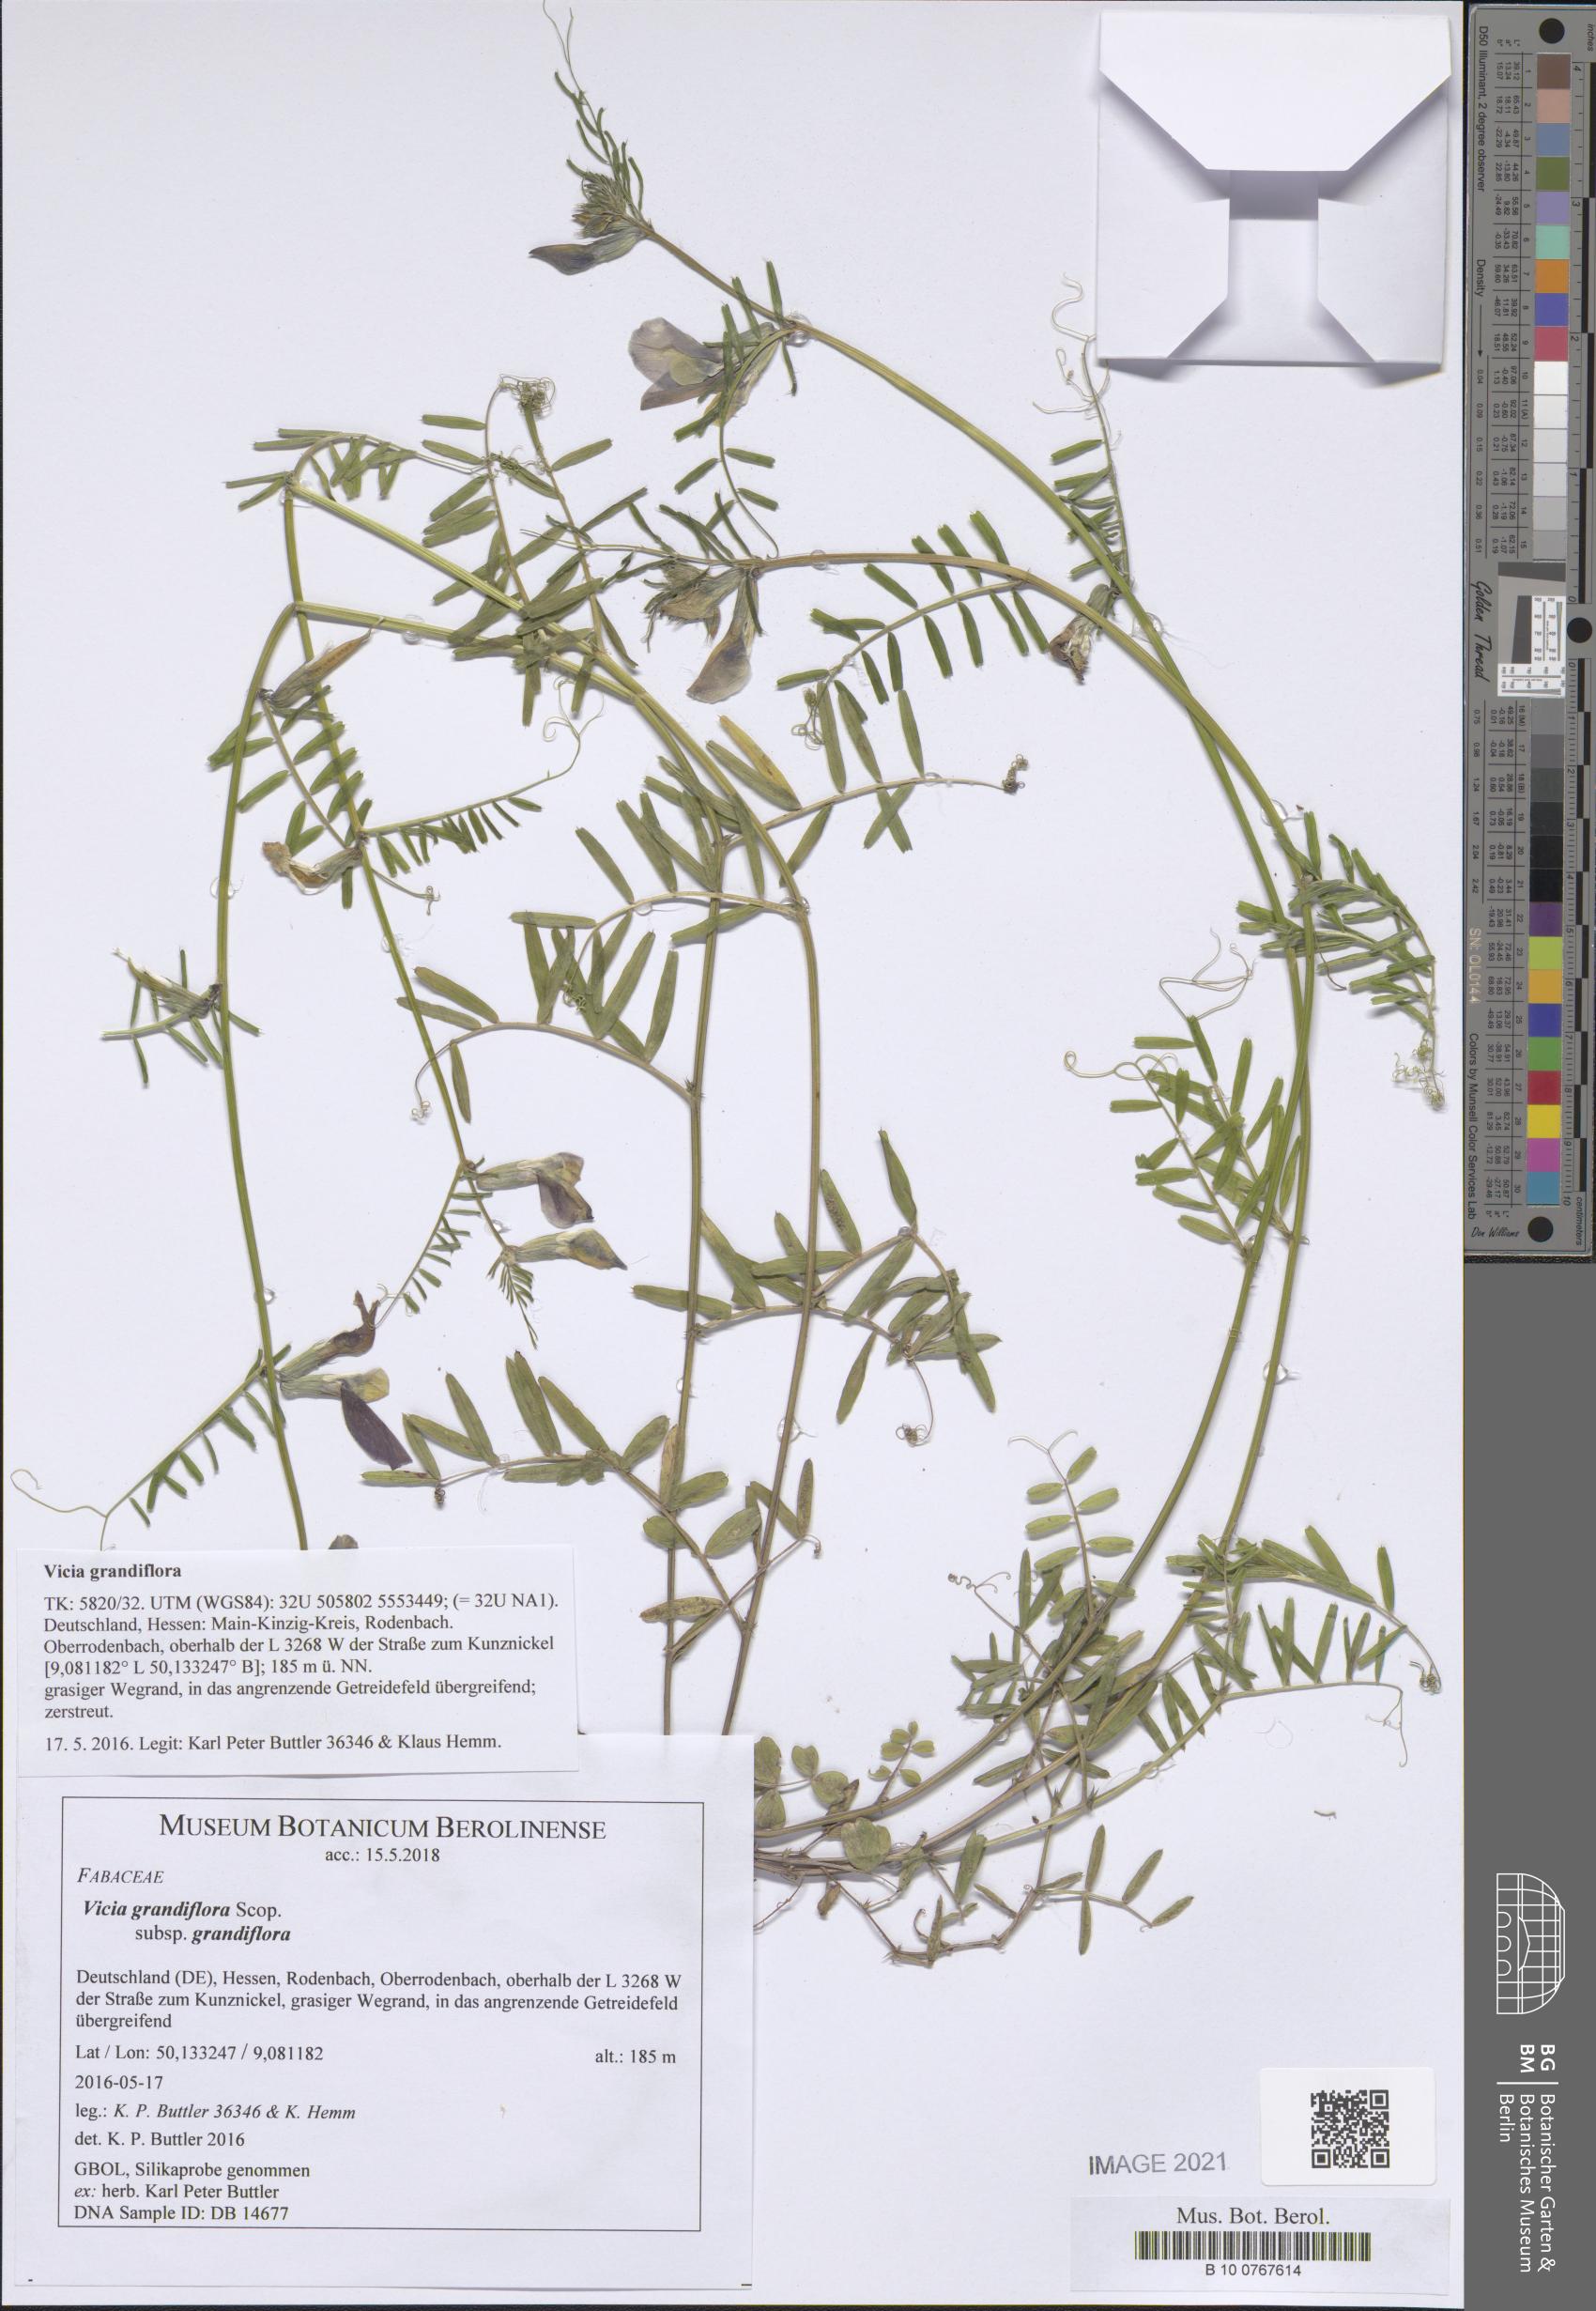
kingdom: Plantae
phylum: Tracheophyta
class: Magnoliopsida
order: Fabales
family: Fabaceae
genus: Vicia
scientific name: Vicia grandiflora
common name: Large yellow vetch
